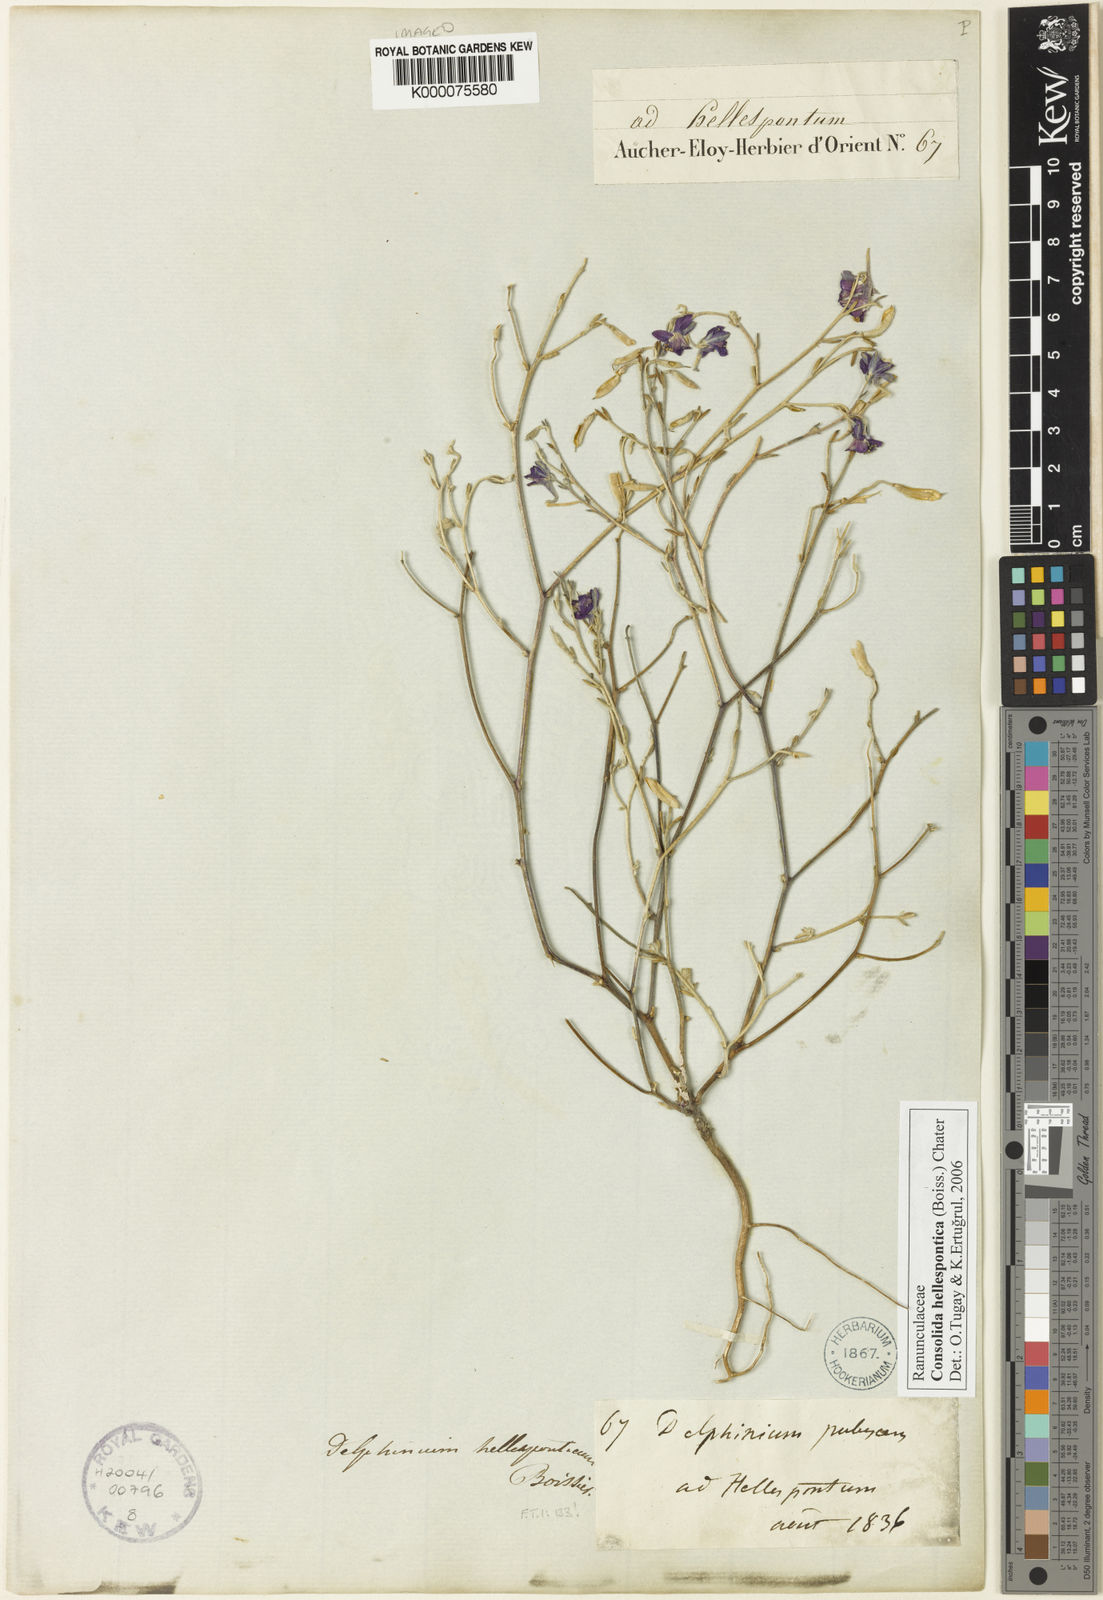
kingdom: Plantae
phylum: Tracheophyta
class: Magnoliopsida
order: Ranunculales
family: Ranunculaceae
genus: Delphinium
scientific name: Delphinium hellesponticum
